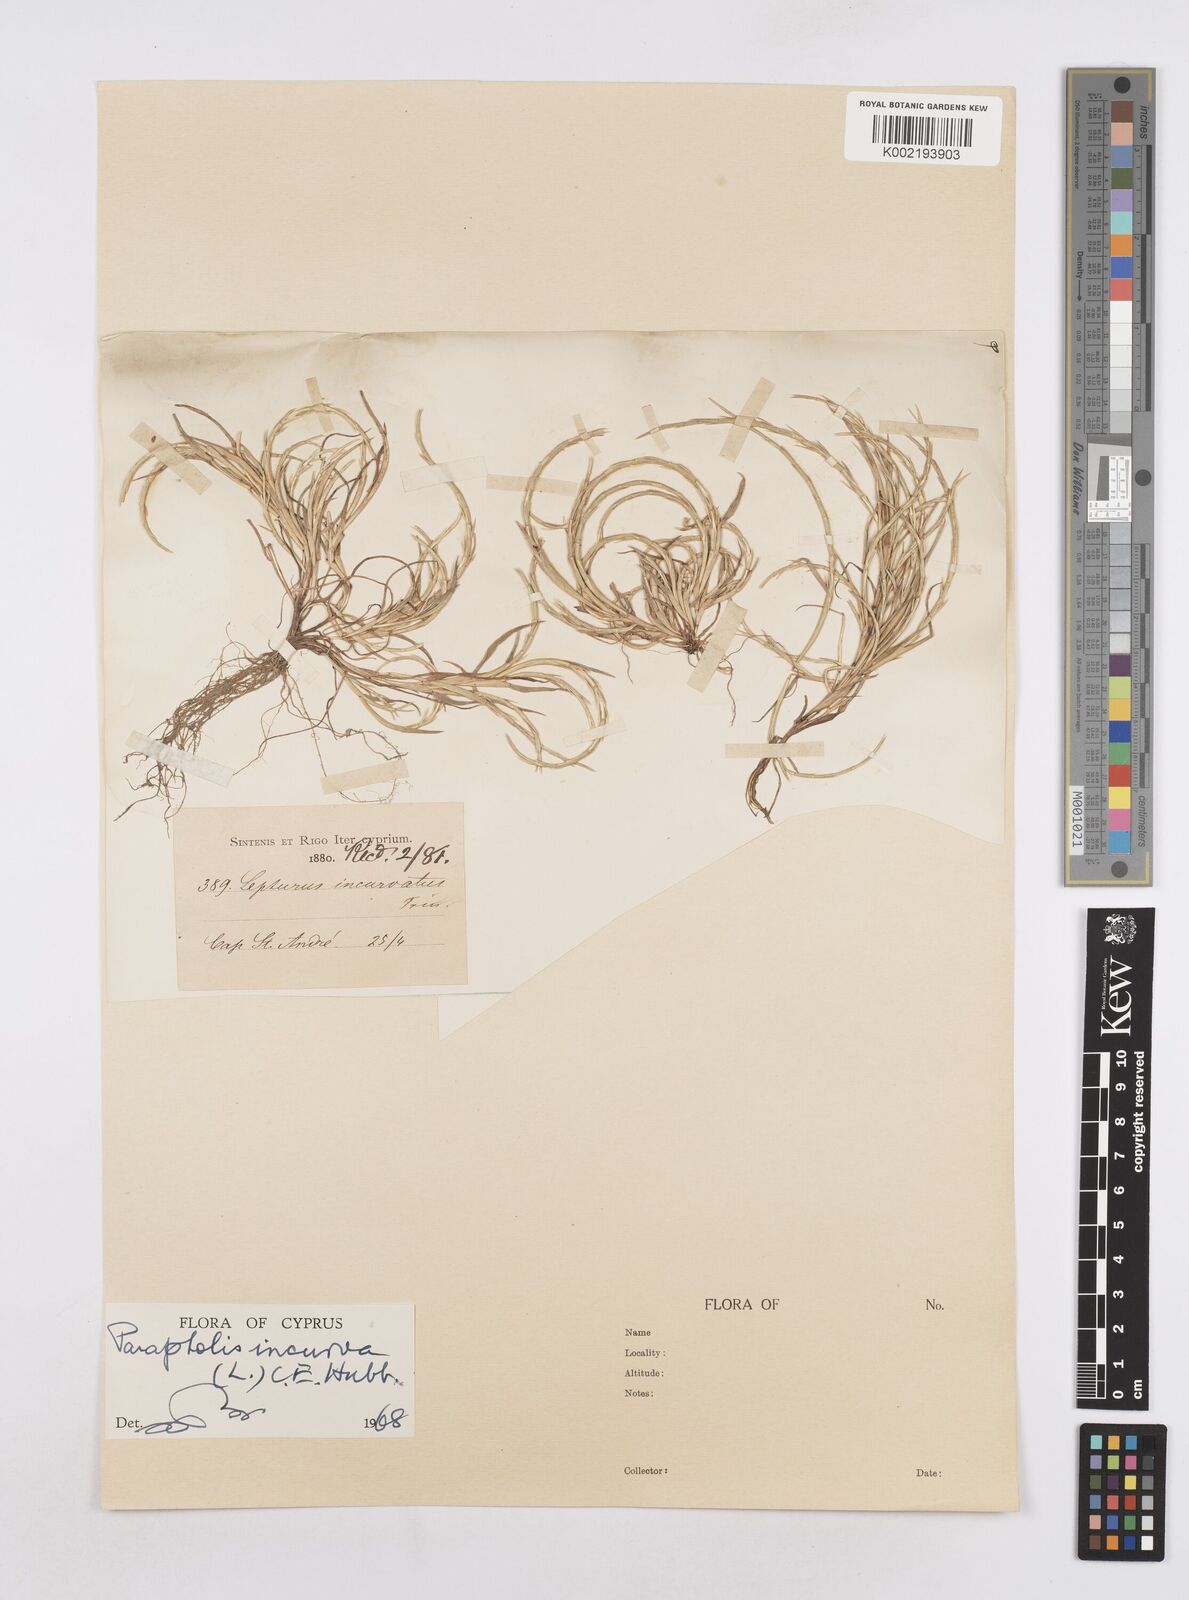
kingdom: Plantae
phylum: Tracheophyta
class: Liliopsida
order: Poales
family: Poaceae
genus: Parapholis
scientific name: Parapholis incurva
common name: Curved sicklegrass
